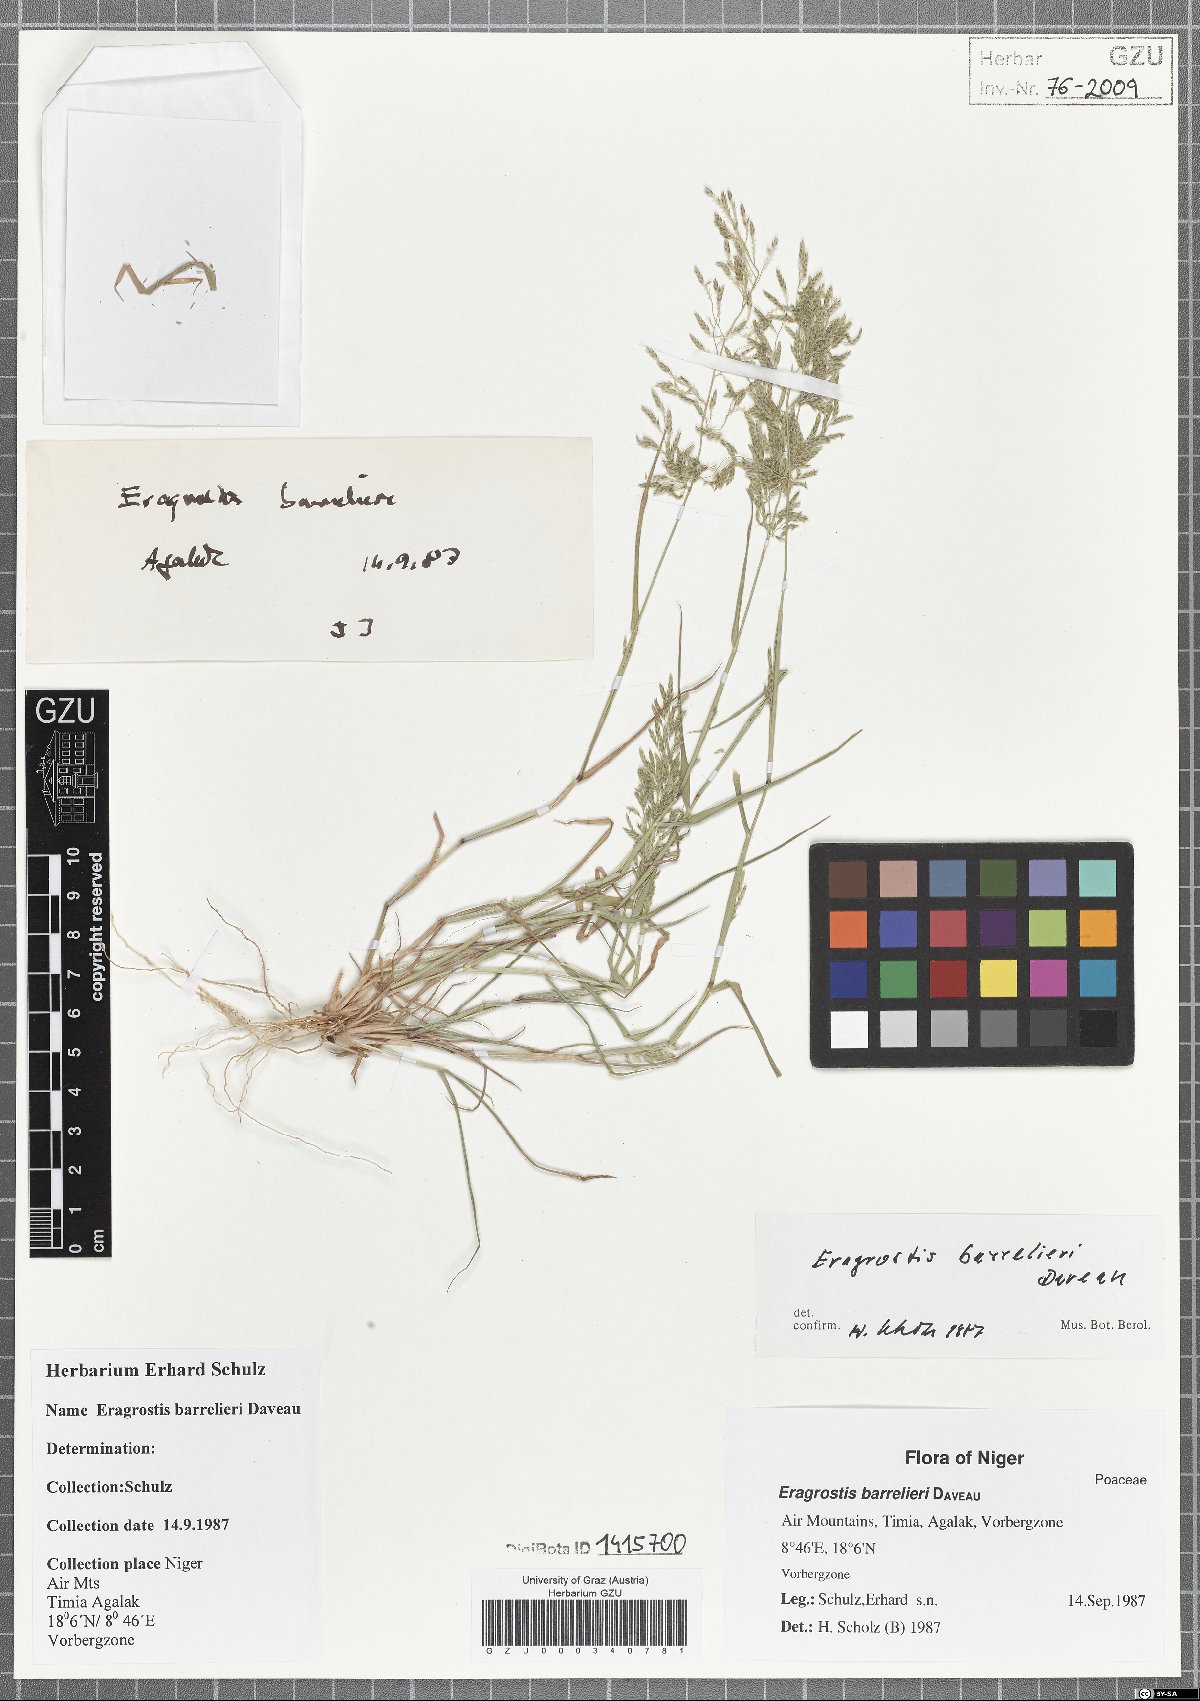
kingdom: Plantae
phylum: Tracheophyta
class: Liliopsida
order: Poales
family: Poaceae
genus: Eragrostis
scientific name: Eragrostis barrelieri
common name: Mediterranean lovegrass
